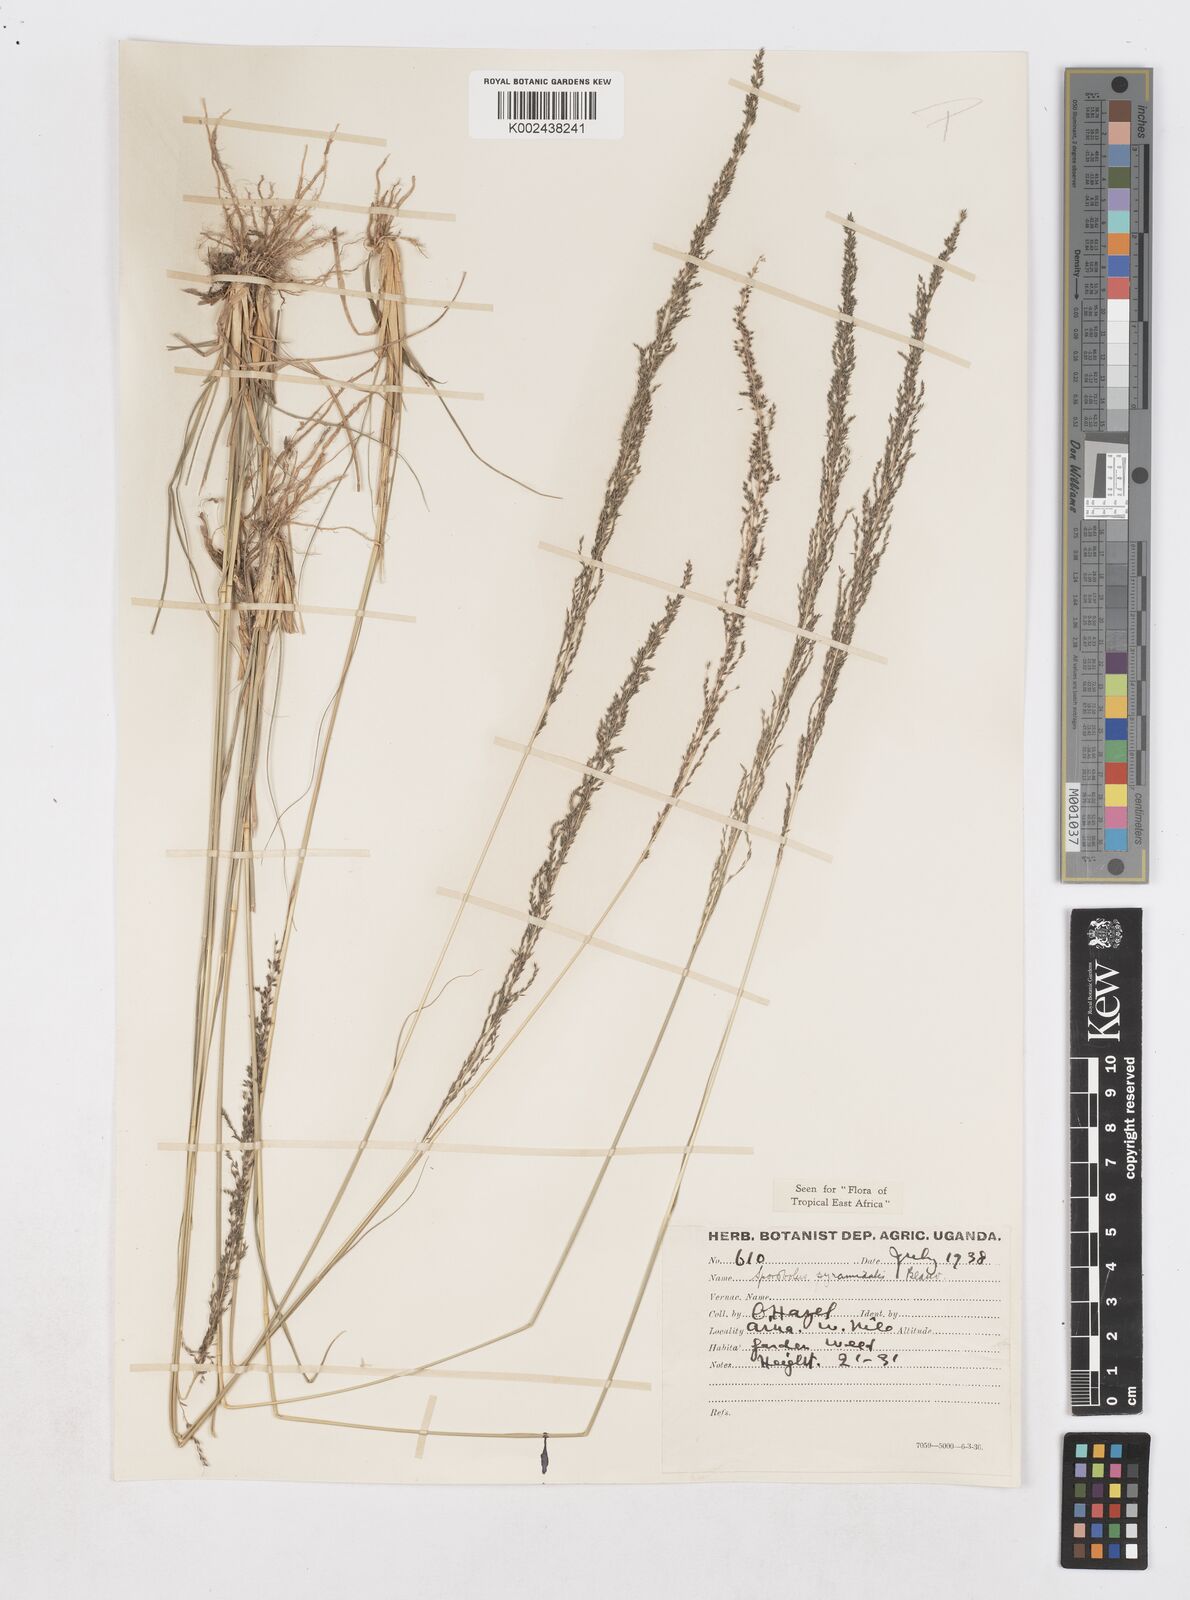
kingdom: Plantae
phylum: Tracheophyta
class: Liliopsida
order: Poales
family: Poaceae
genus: Sporobolus
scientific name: Sporobolus pyramidalis
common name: West indian dropseed
